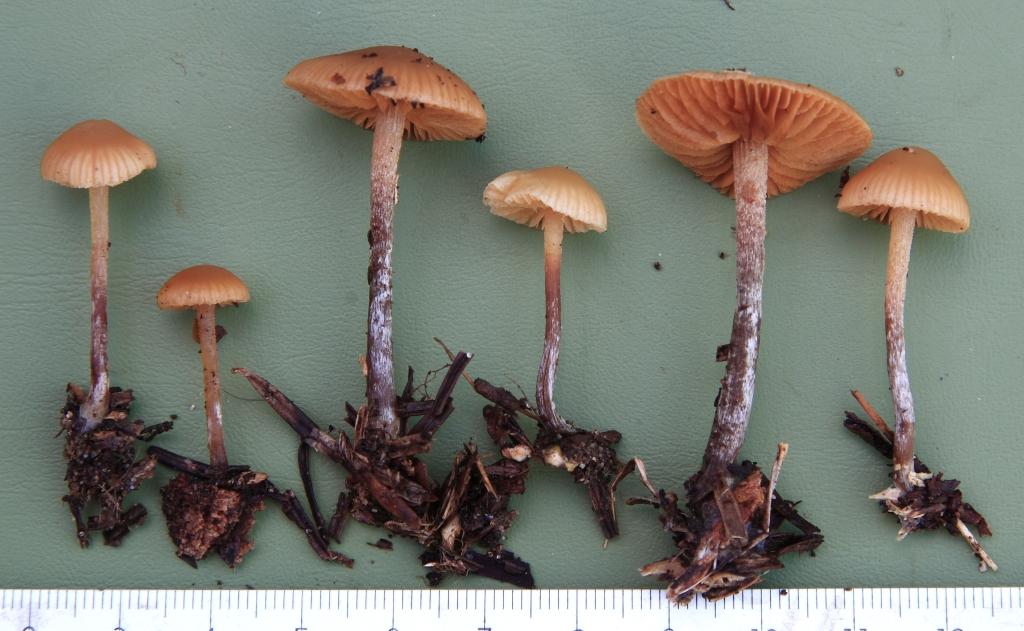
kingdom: Fungi
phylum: Basidiomycota
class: Agaricomycetes
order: Agaricales
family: Hymenogastraceae
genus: Galerina
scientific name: Galerina badipes
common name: brunstokket hjelmhat
